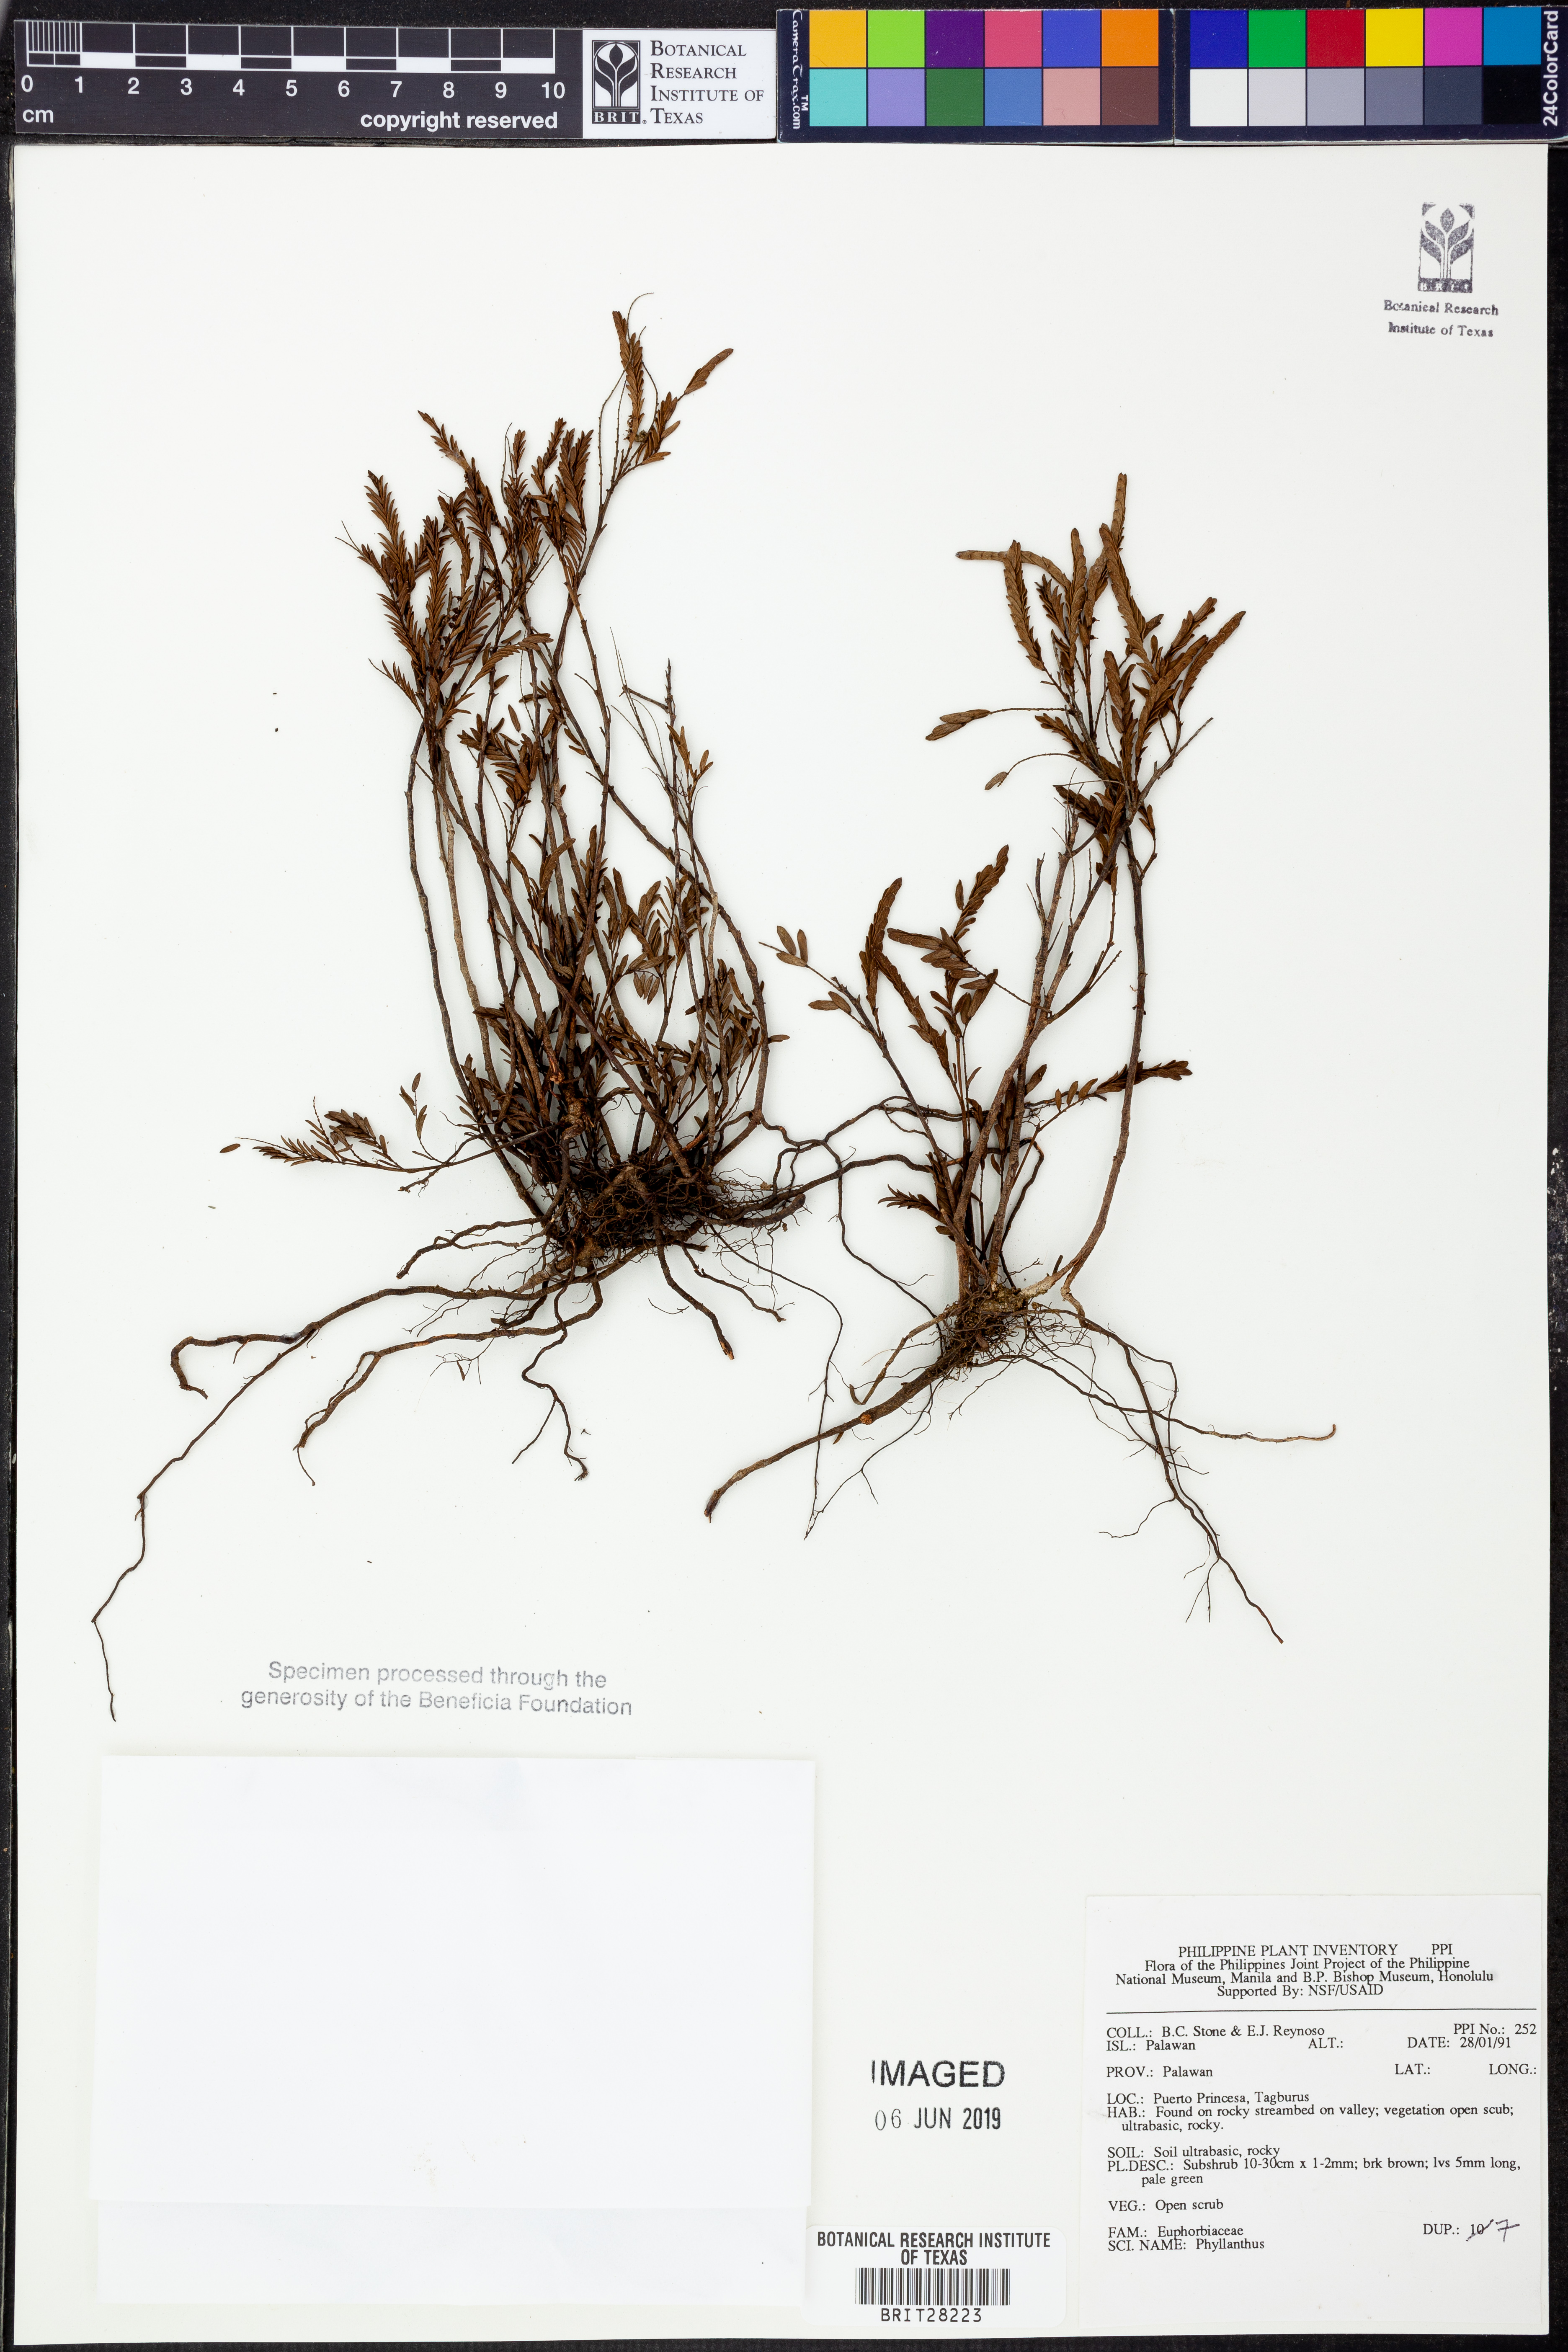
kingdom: Plantae
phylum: Tracheophyta
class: Magnoliopsida
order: Malpighiales
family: Phyllanthaceae
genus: Phyllanthus
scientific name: Phyllanthus
